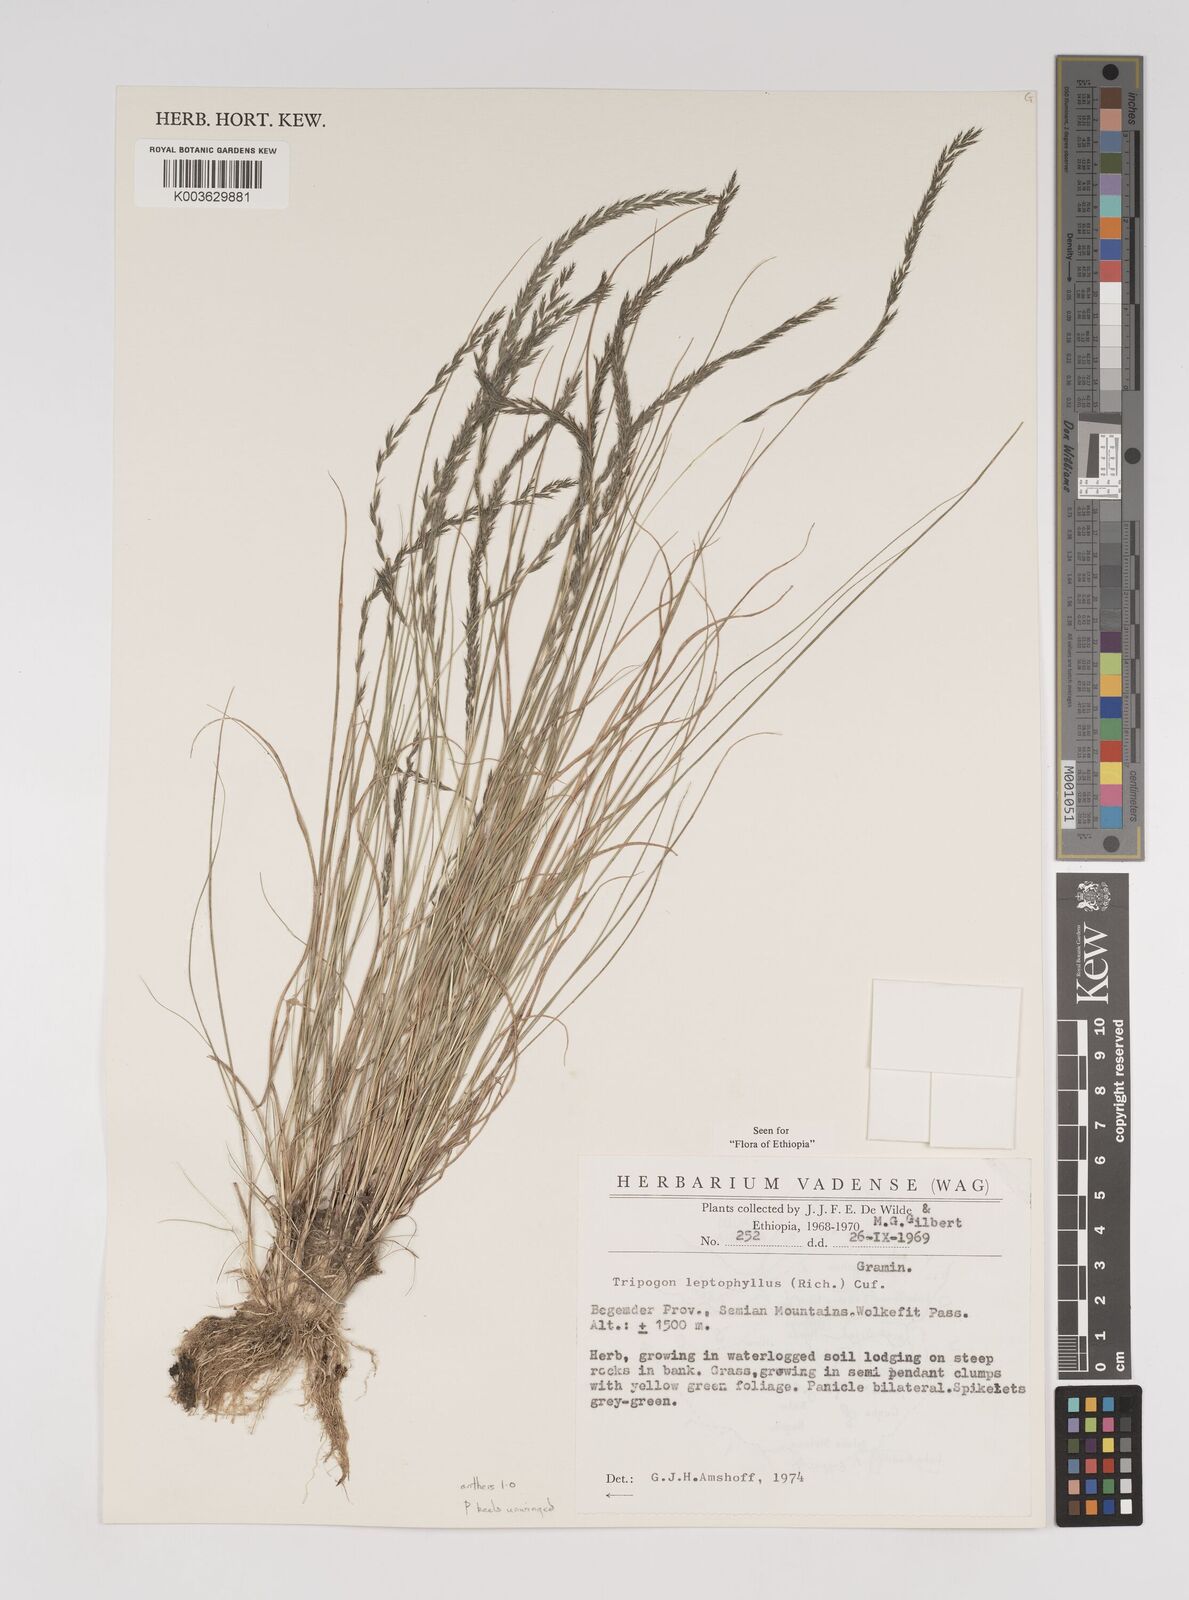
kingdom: Plantae
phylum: Tracheophyta
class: Liliopsida
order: Poales
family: Poaceae
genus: Tripogon
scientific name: Tripogon leptophyllus
